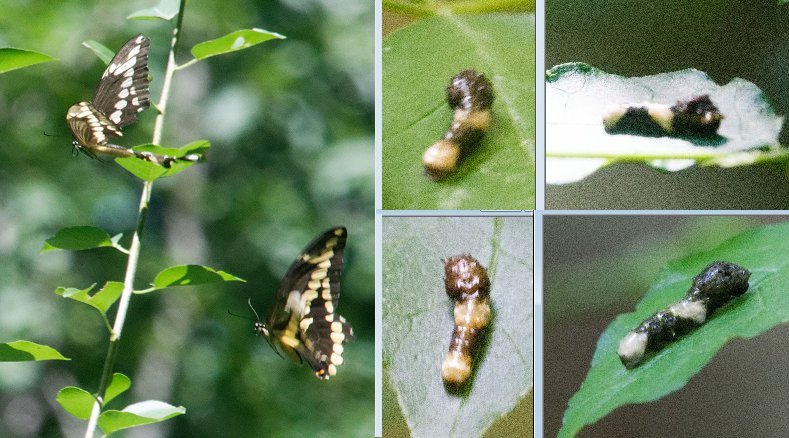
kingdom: Animalia
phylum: Arthropoda
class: Insecta
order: Lepidoptera
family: Papilionidae
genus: Papilio
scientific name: Papilio cresphontes
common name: Eastern Giant Swallowtail
